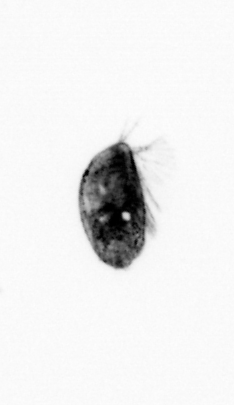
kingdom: Animalia
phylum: Arthropoda
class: Maxillopoda
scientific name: Maxillopoda
